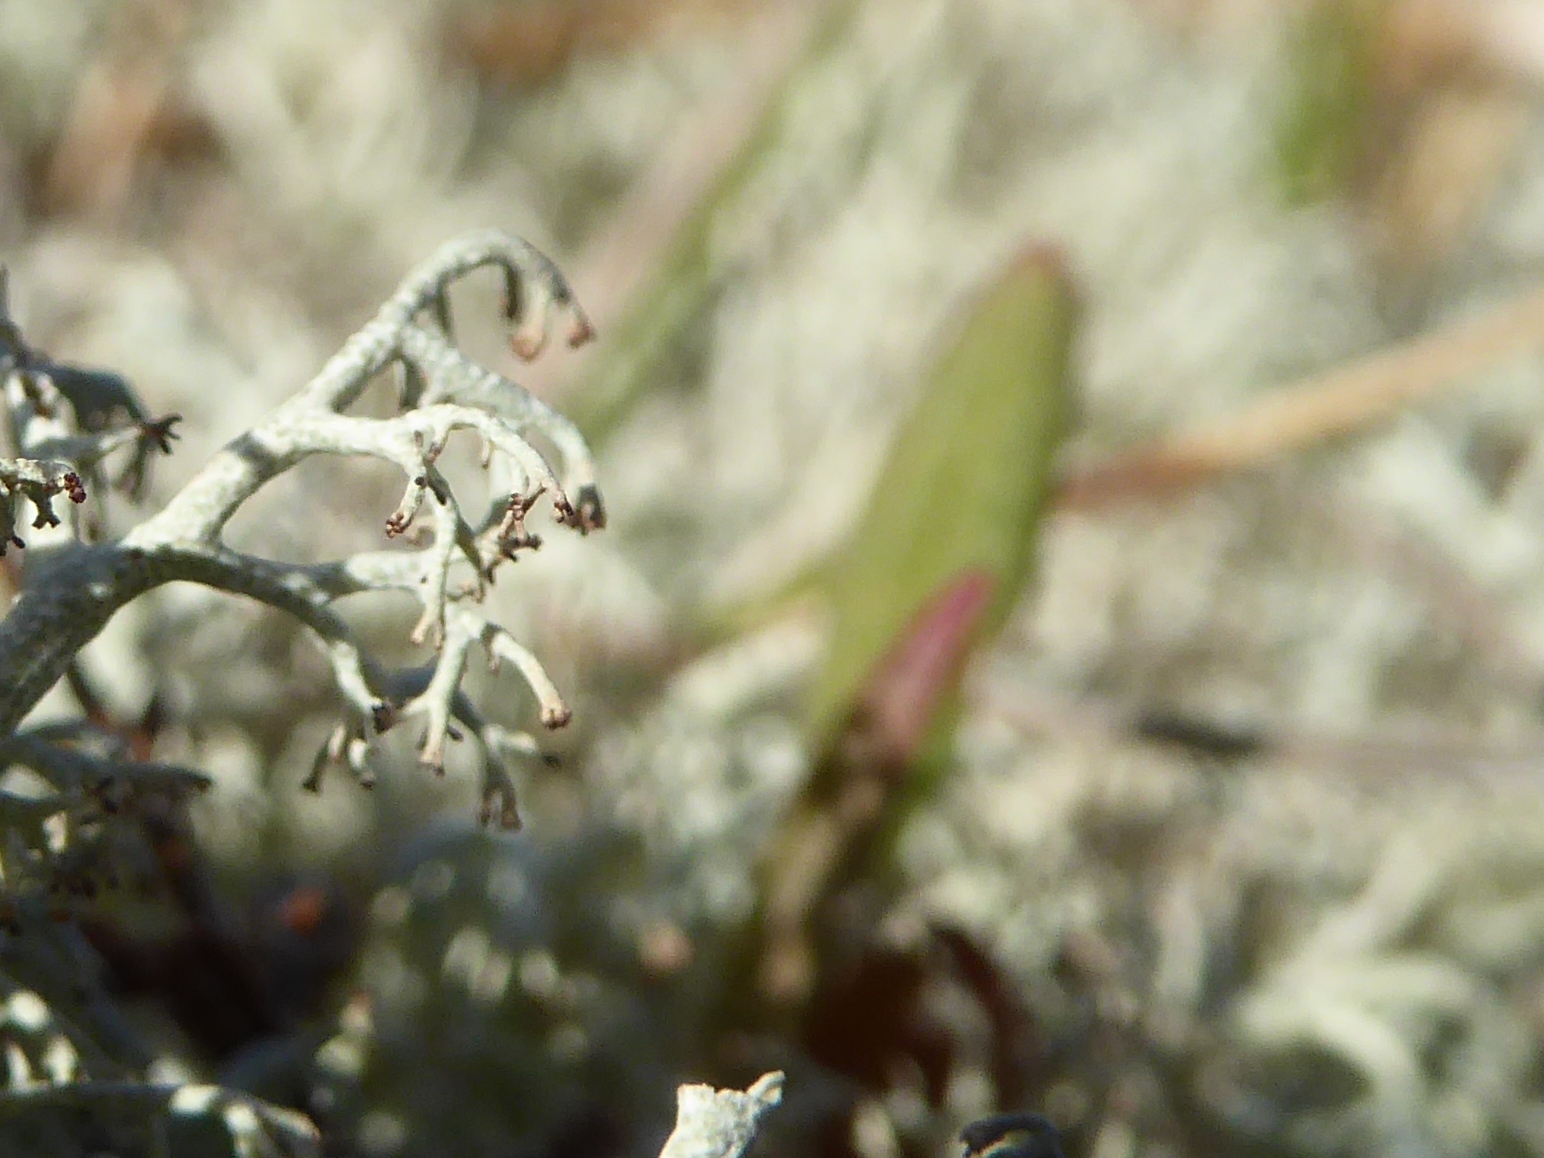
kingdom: Fungi
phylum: Ascomycota
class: Lecanoromycetes
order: Lecanorales
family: Cladoniaceae
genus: Cladonia
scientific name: Cladonia ciliata
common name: spinkel rensdyrlav
